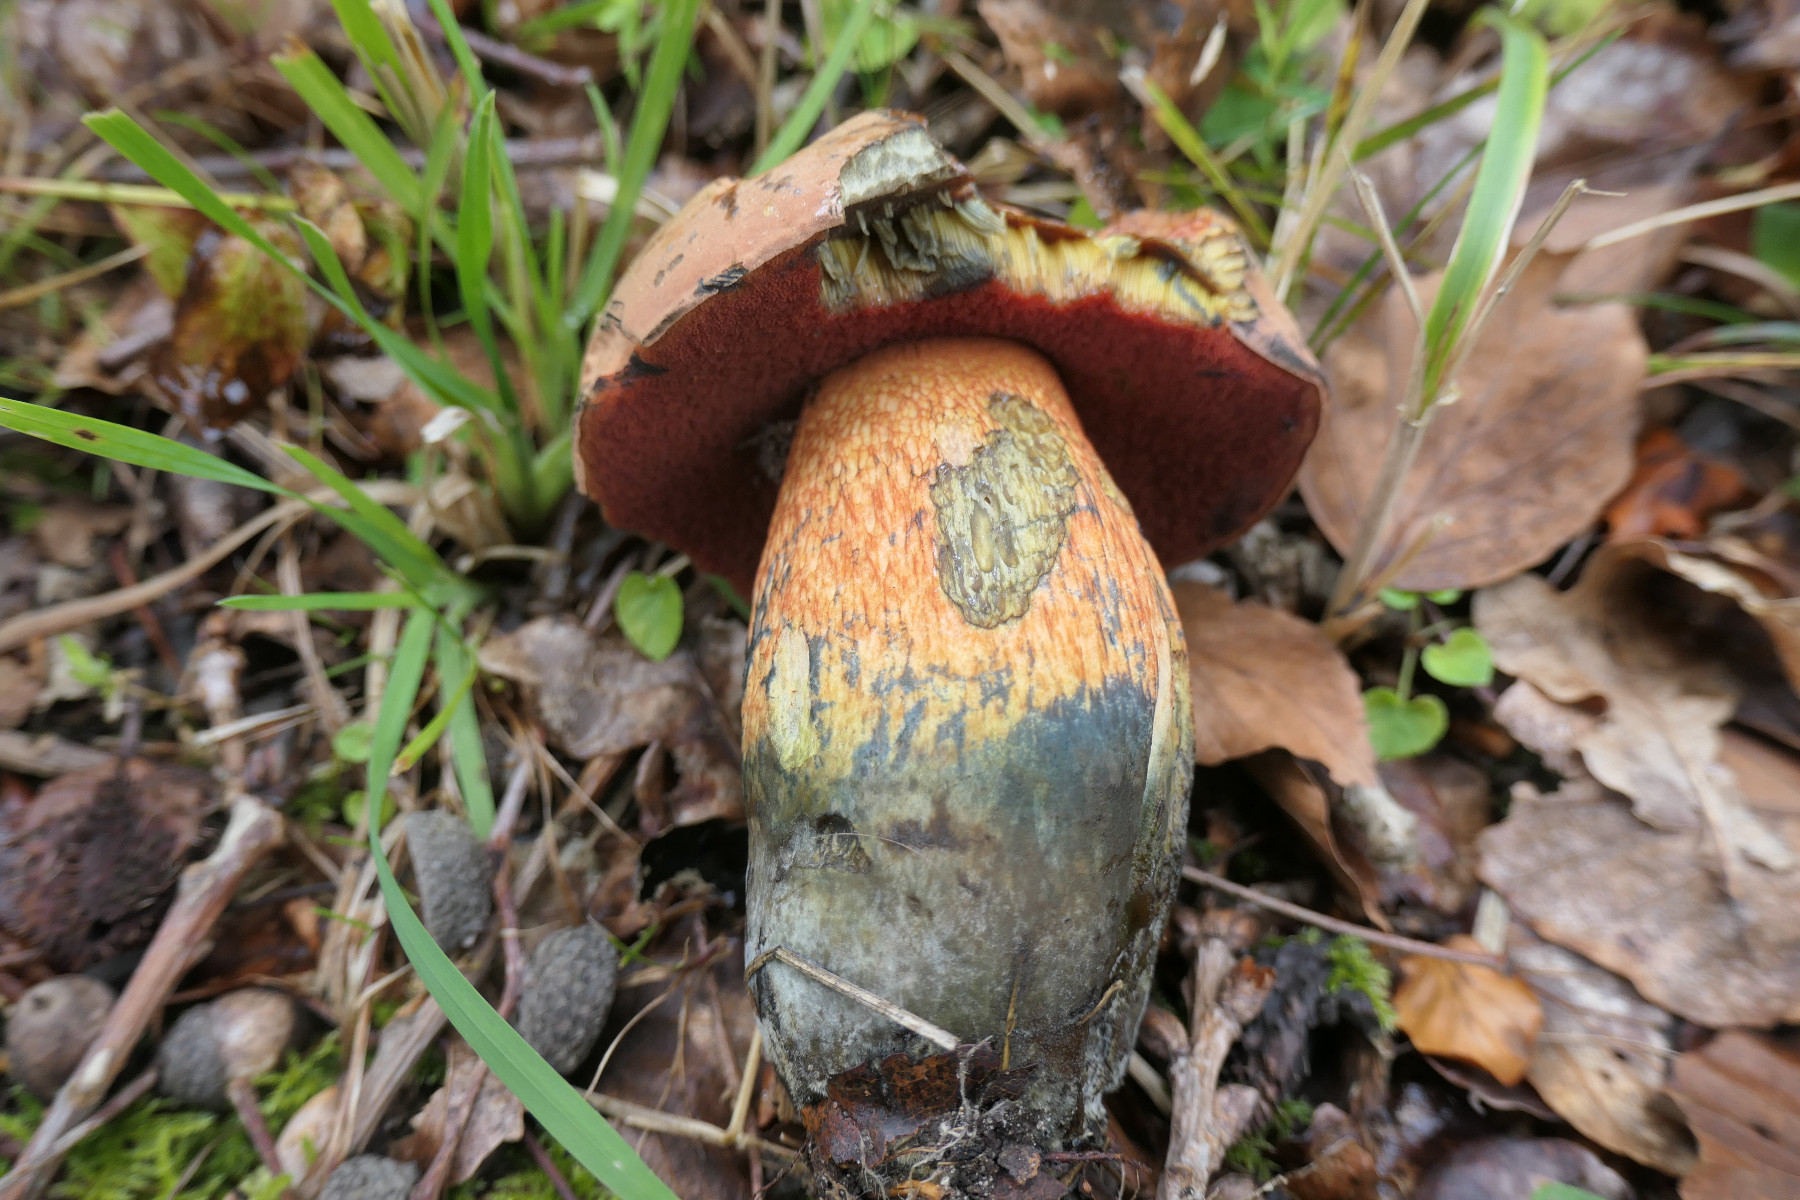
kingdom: Fungi
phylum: Basidiomycota
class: Agaricomycetes
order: Boletales
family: Boletaceae
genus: Suillellus
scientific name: Suillellus luridus
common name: netstokket indigorørhat
